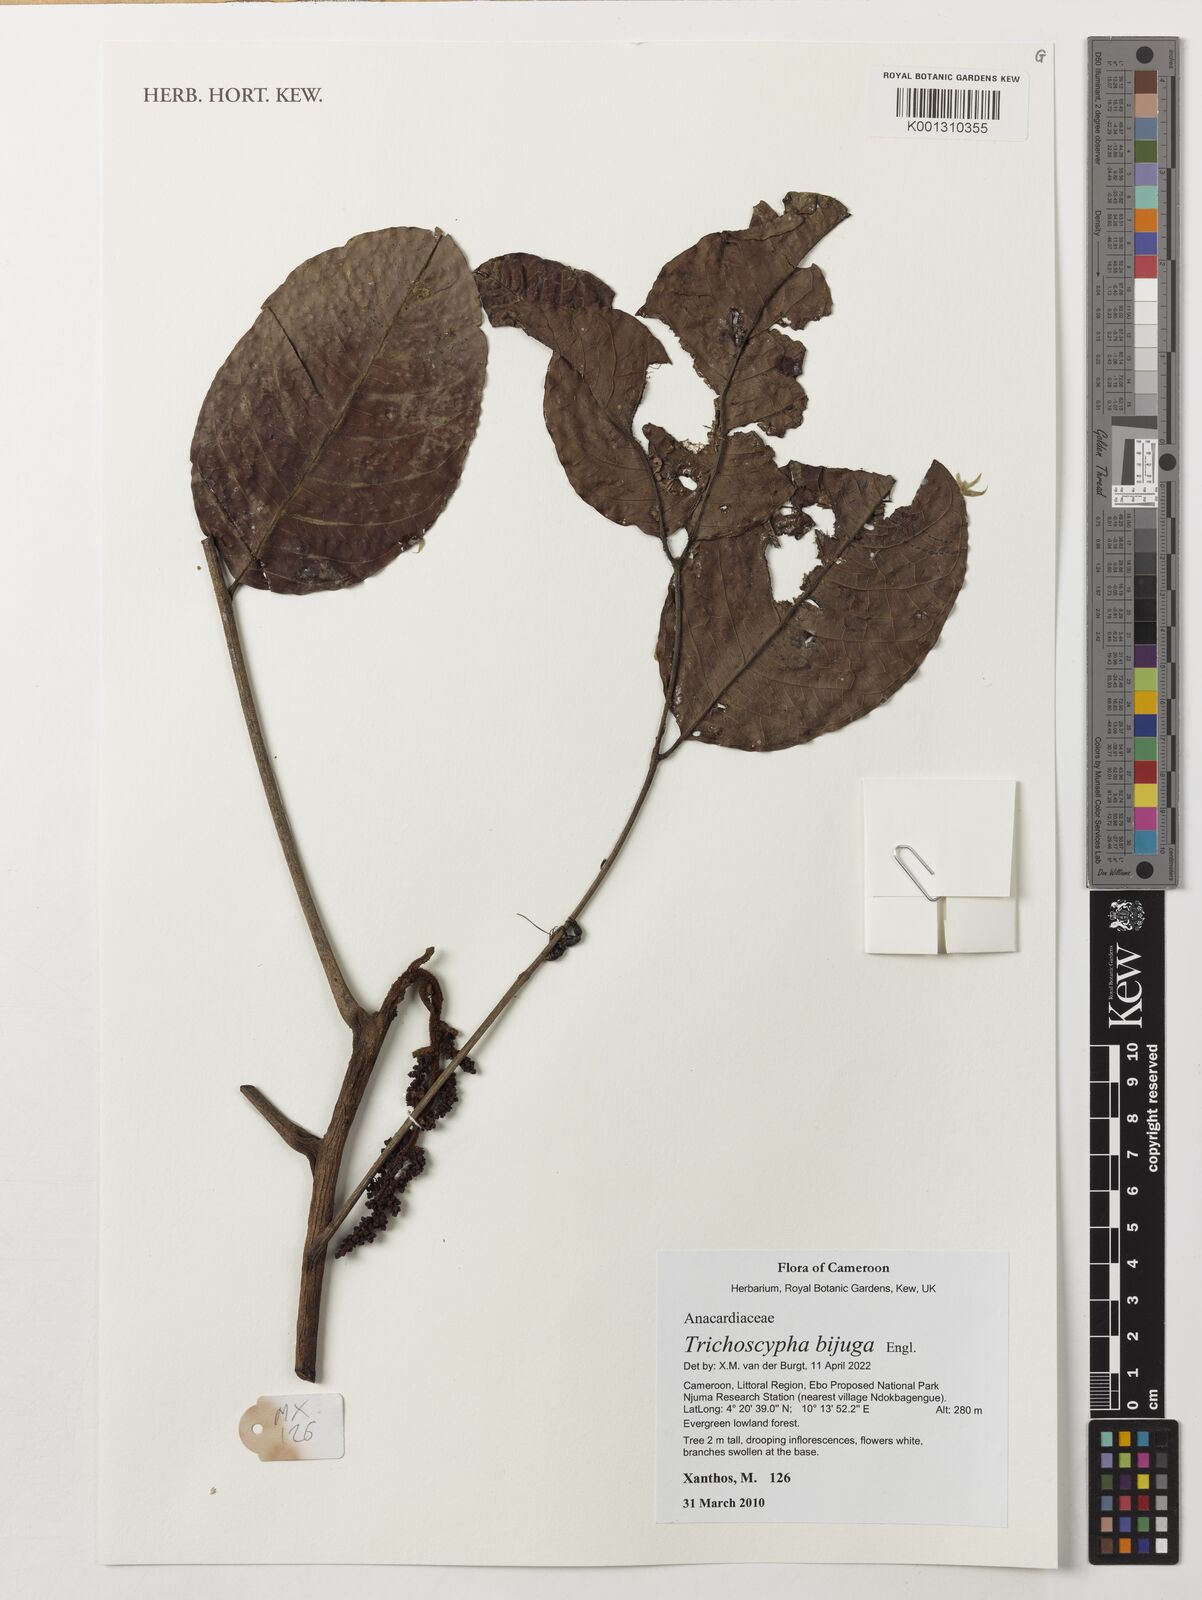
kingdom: Plantae
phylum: Tracheophyta
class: Magnoliopsida
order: Sapindales
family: Anacardiaceae
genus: Trichoscypha
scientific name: Trichoscypha bijuga
